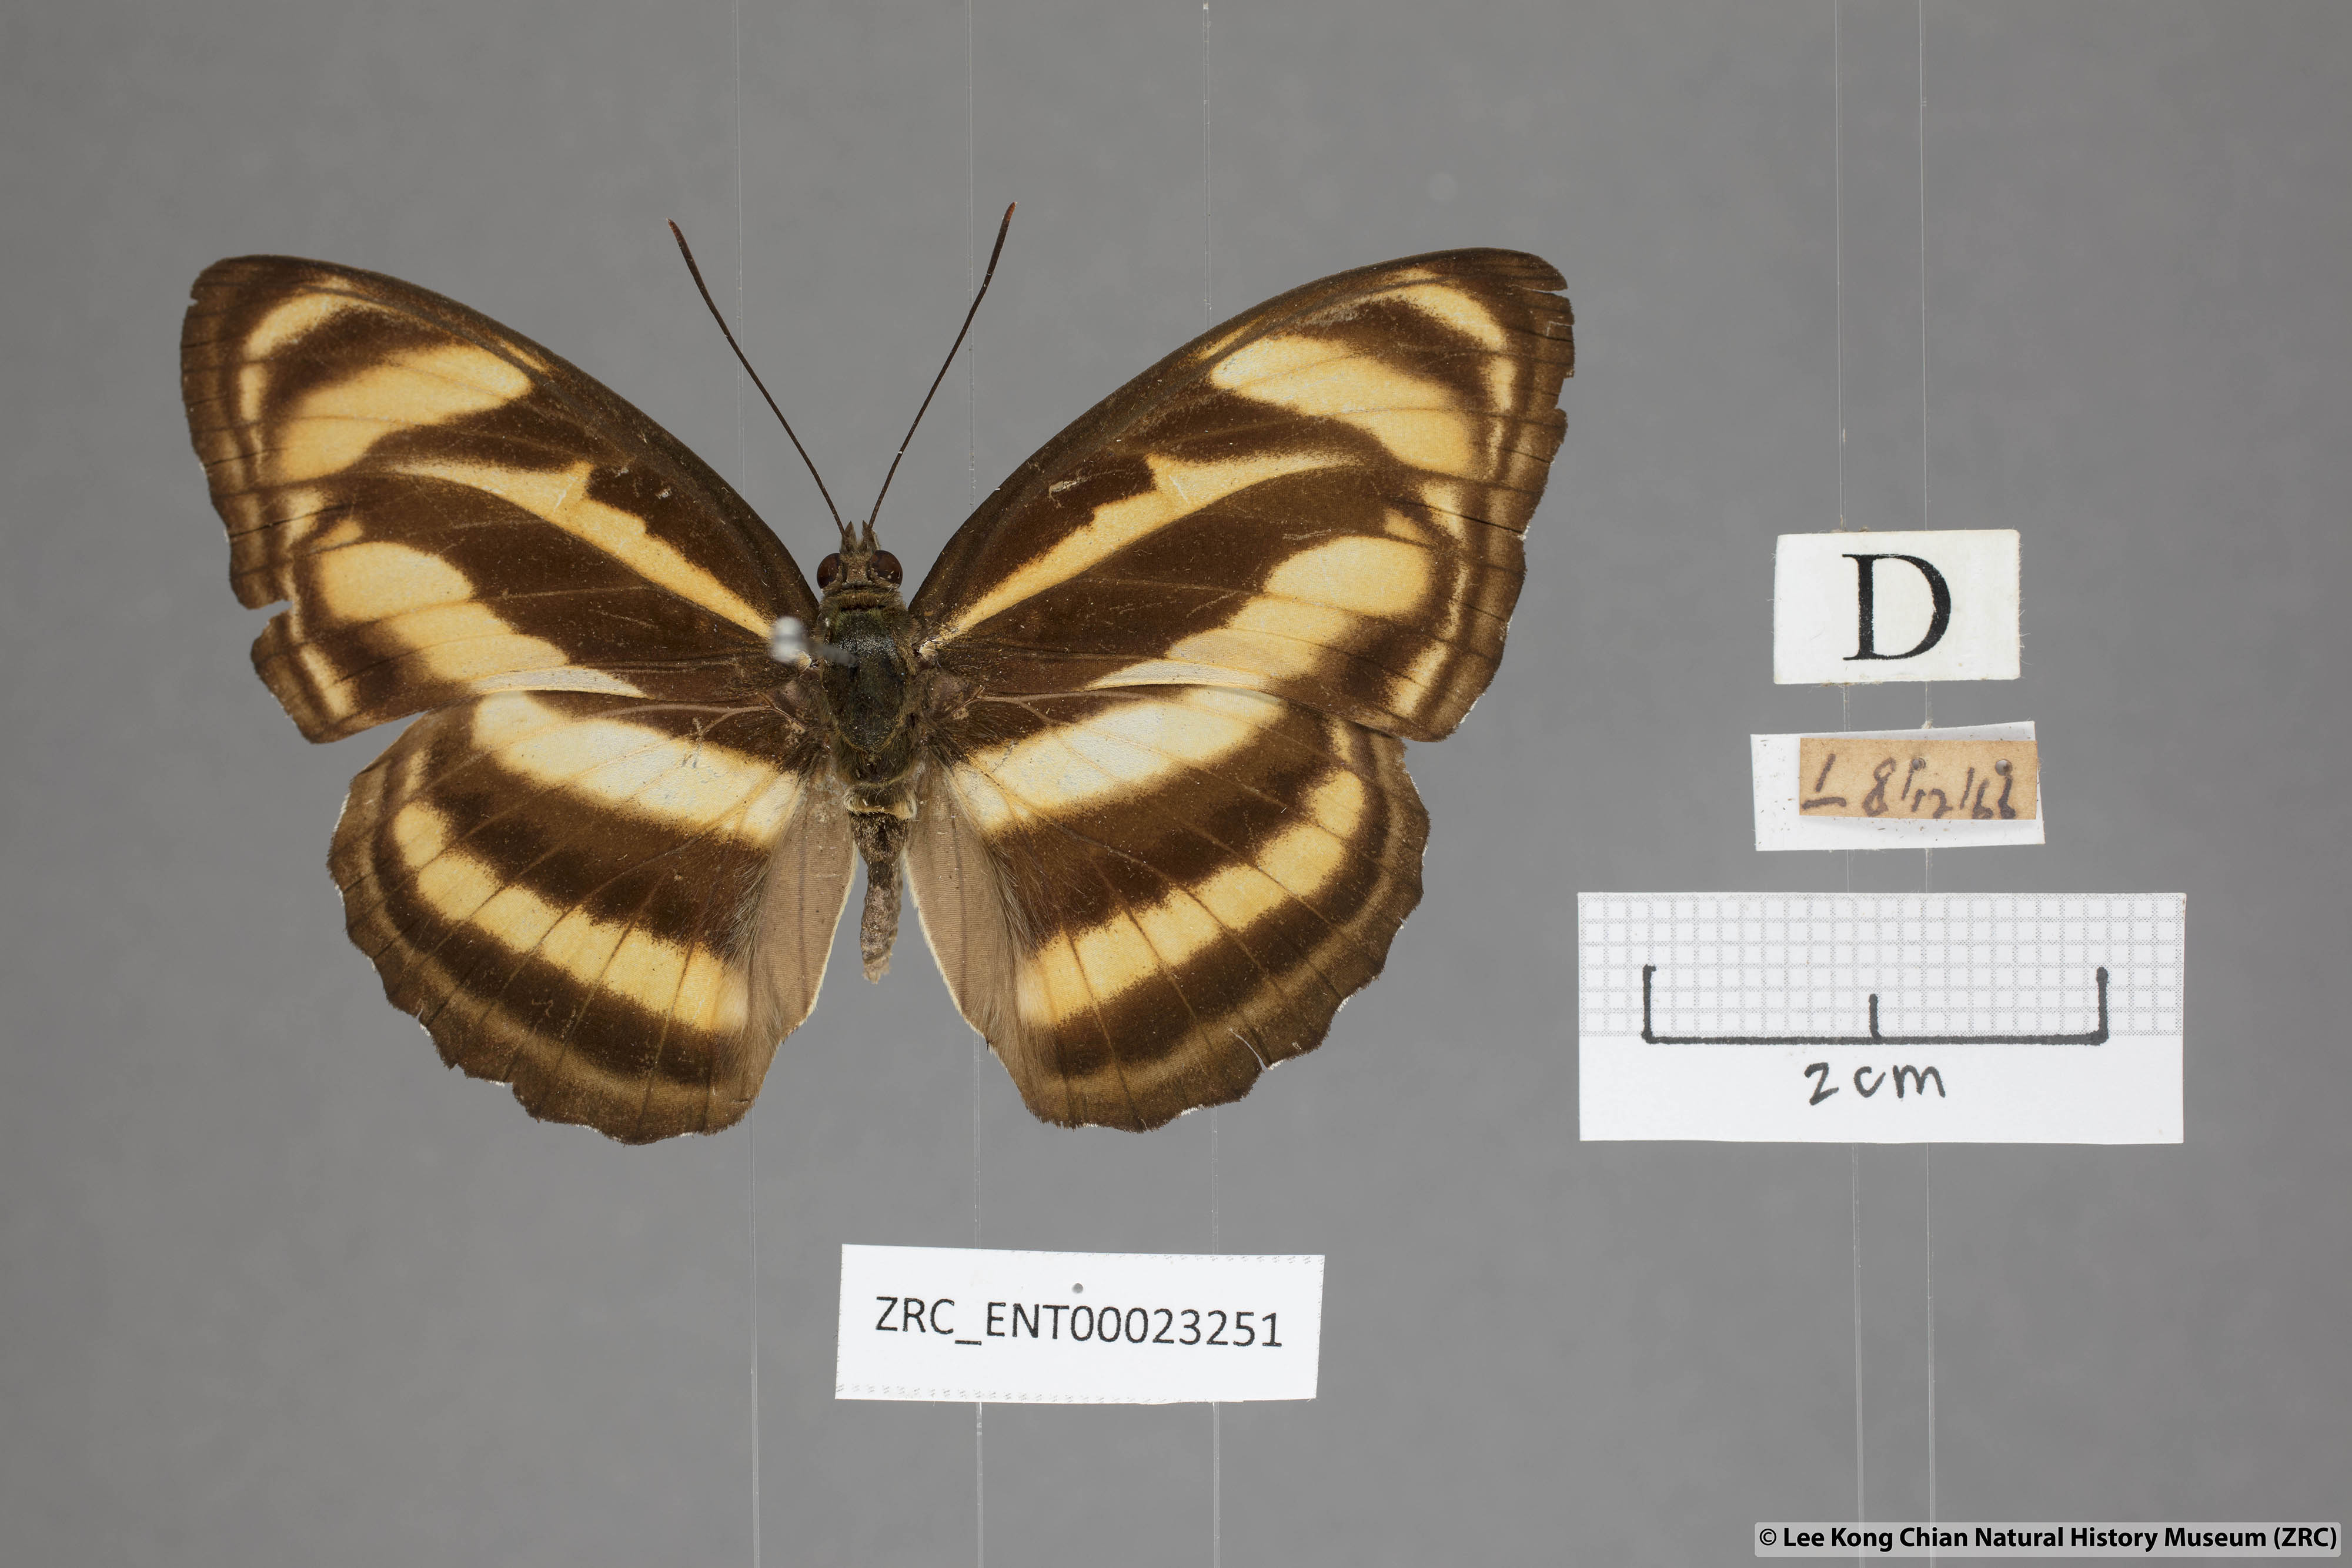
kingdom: Animalia
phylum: Arthropoda
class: Insecta
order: Lepidoptera
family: Nymphalidae
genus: Parathyma
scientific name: Parathyma nefte
